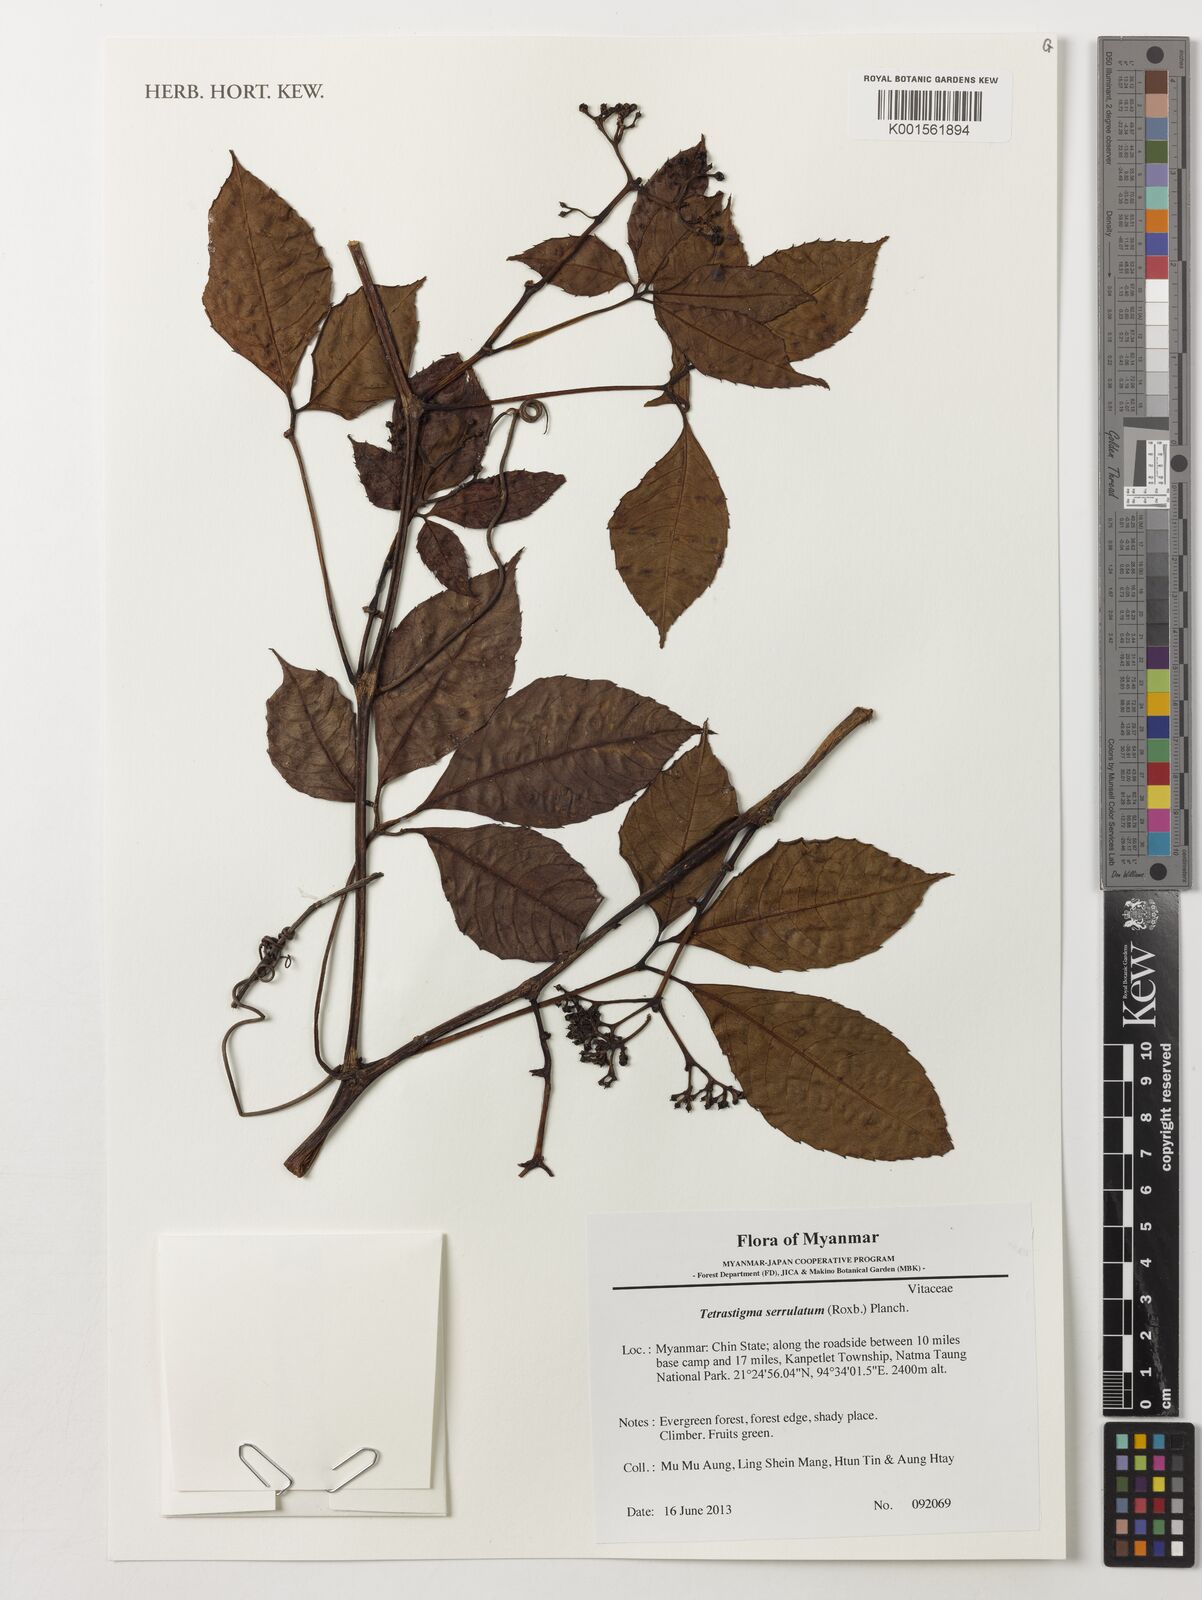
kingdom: Plantae
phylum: Tracheophyta
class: Magnoliopsida
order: Vitales
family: Vitaceae
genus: Tetrastigma
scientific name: Tetrastigma serrulatum
